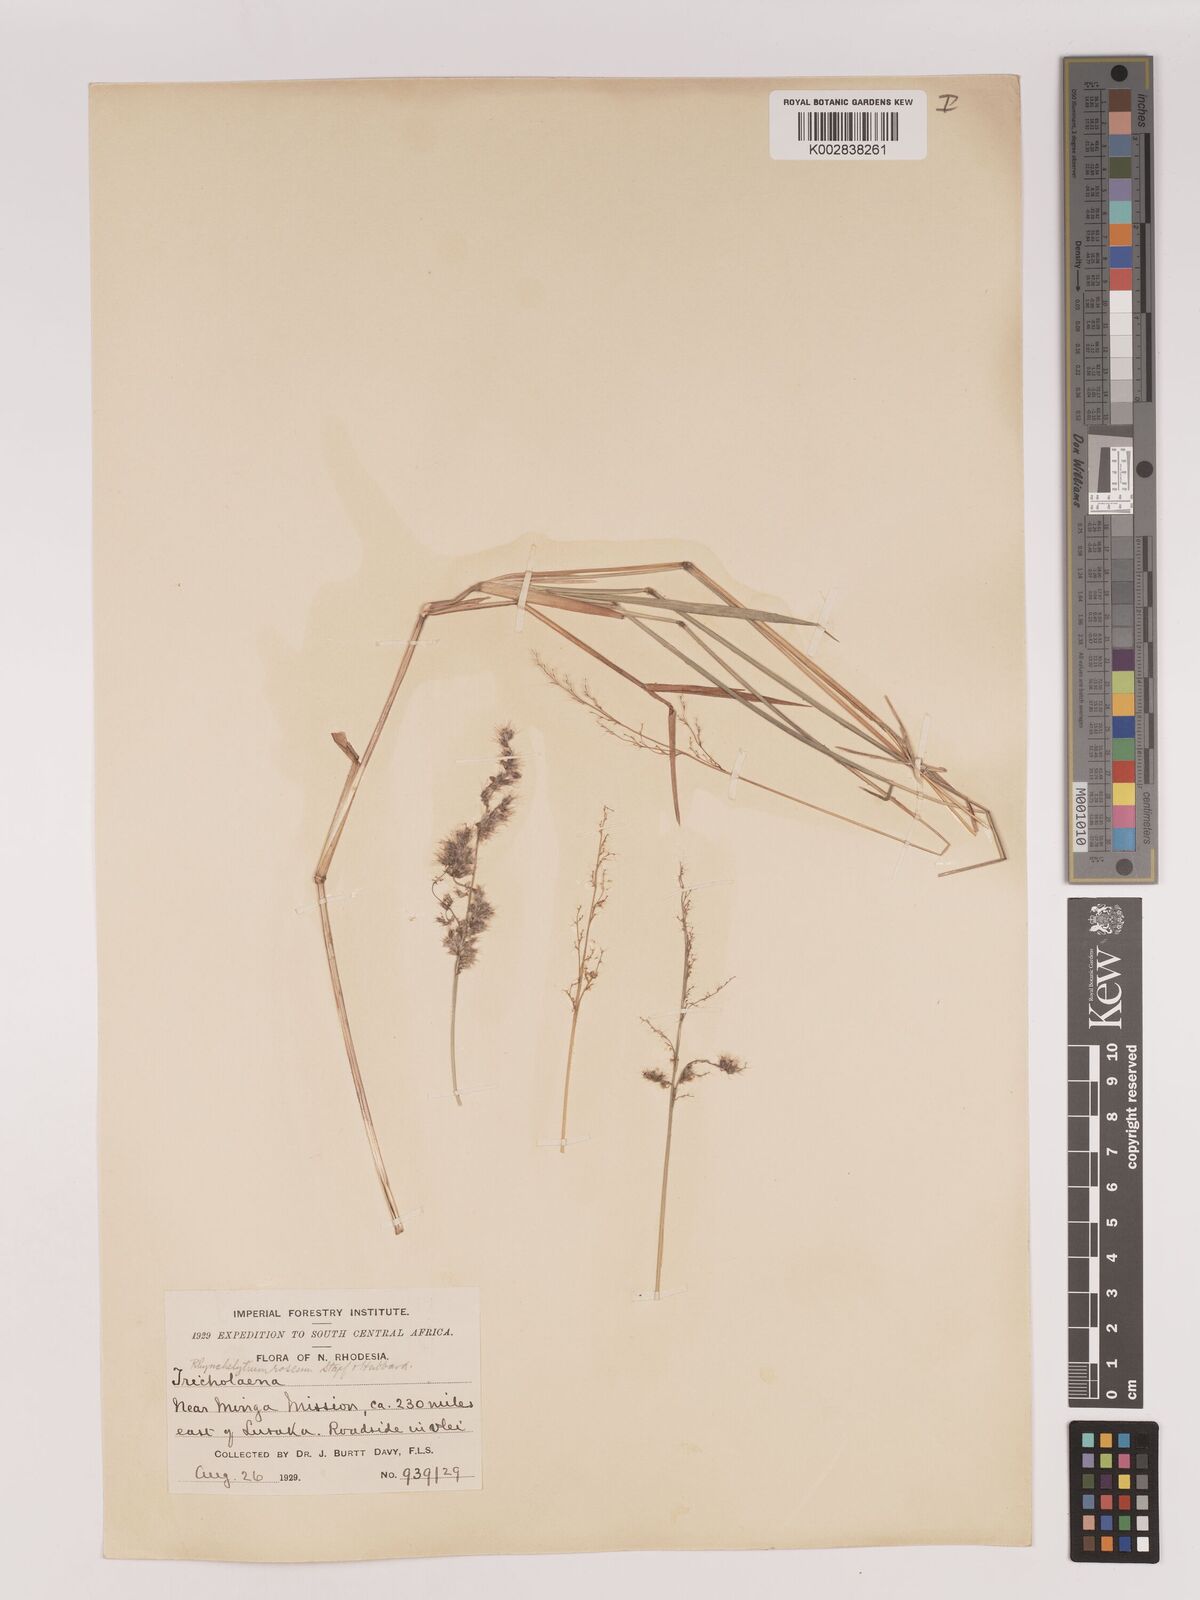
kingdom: Plantae
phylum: Tracheophyta
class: Liliopsida
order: Poales
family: Poaceae
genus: Melinis
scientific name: Melinis repens
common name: Rose natal grass
